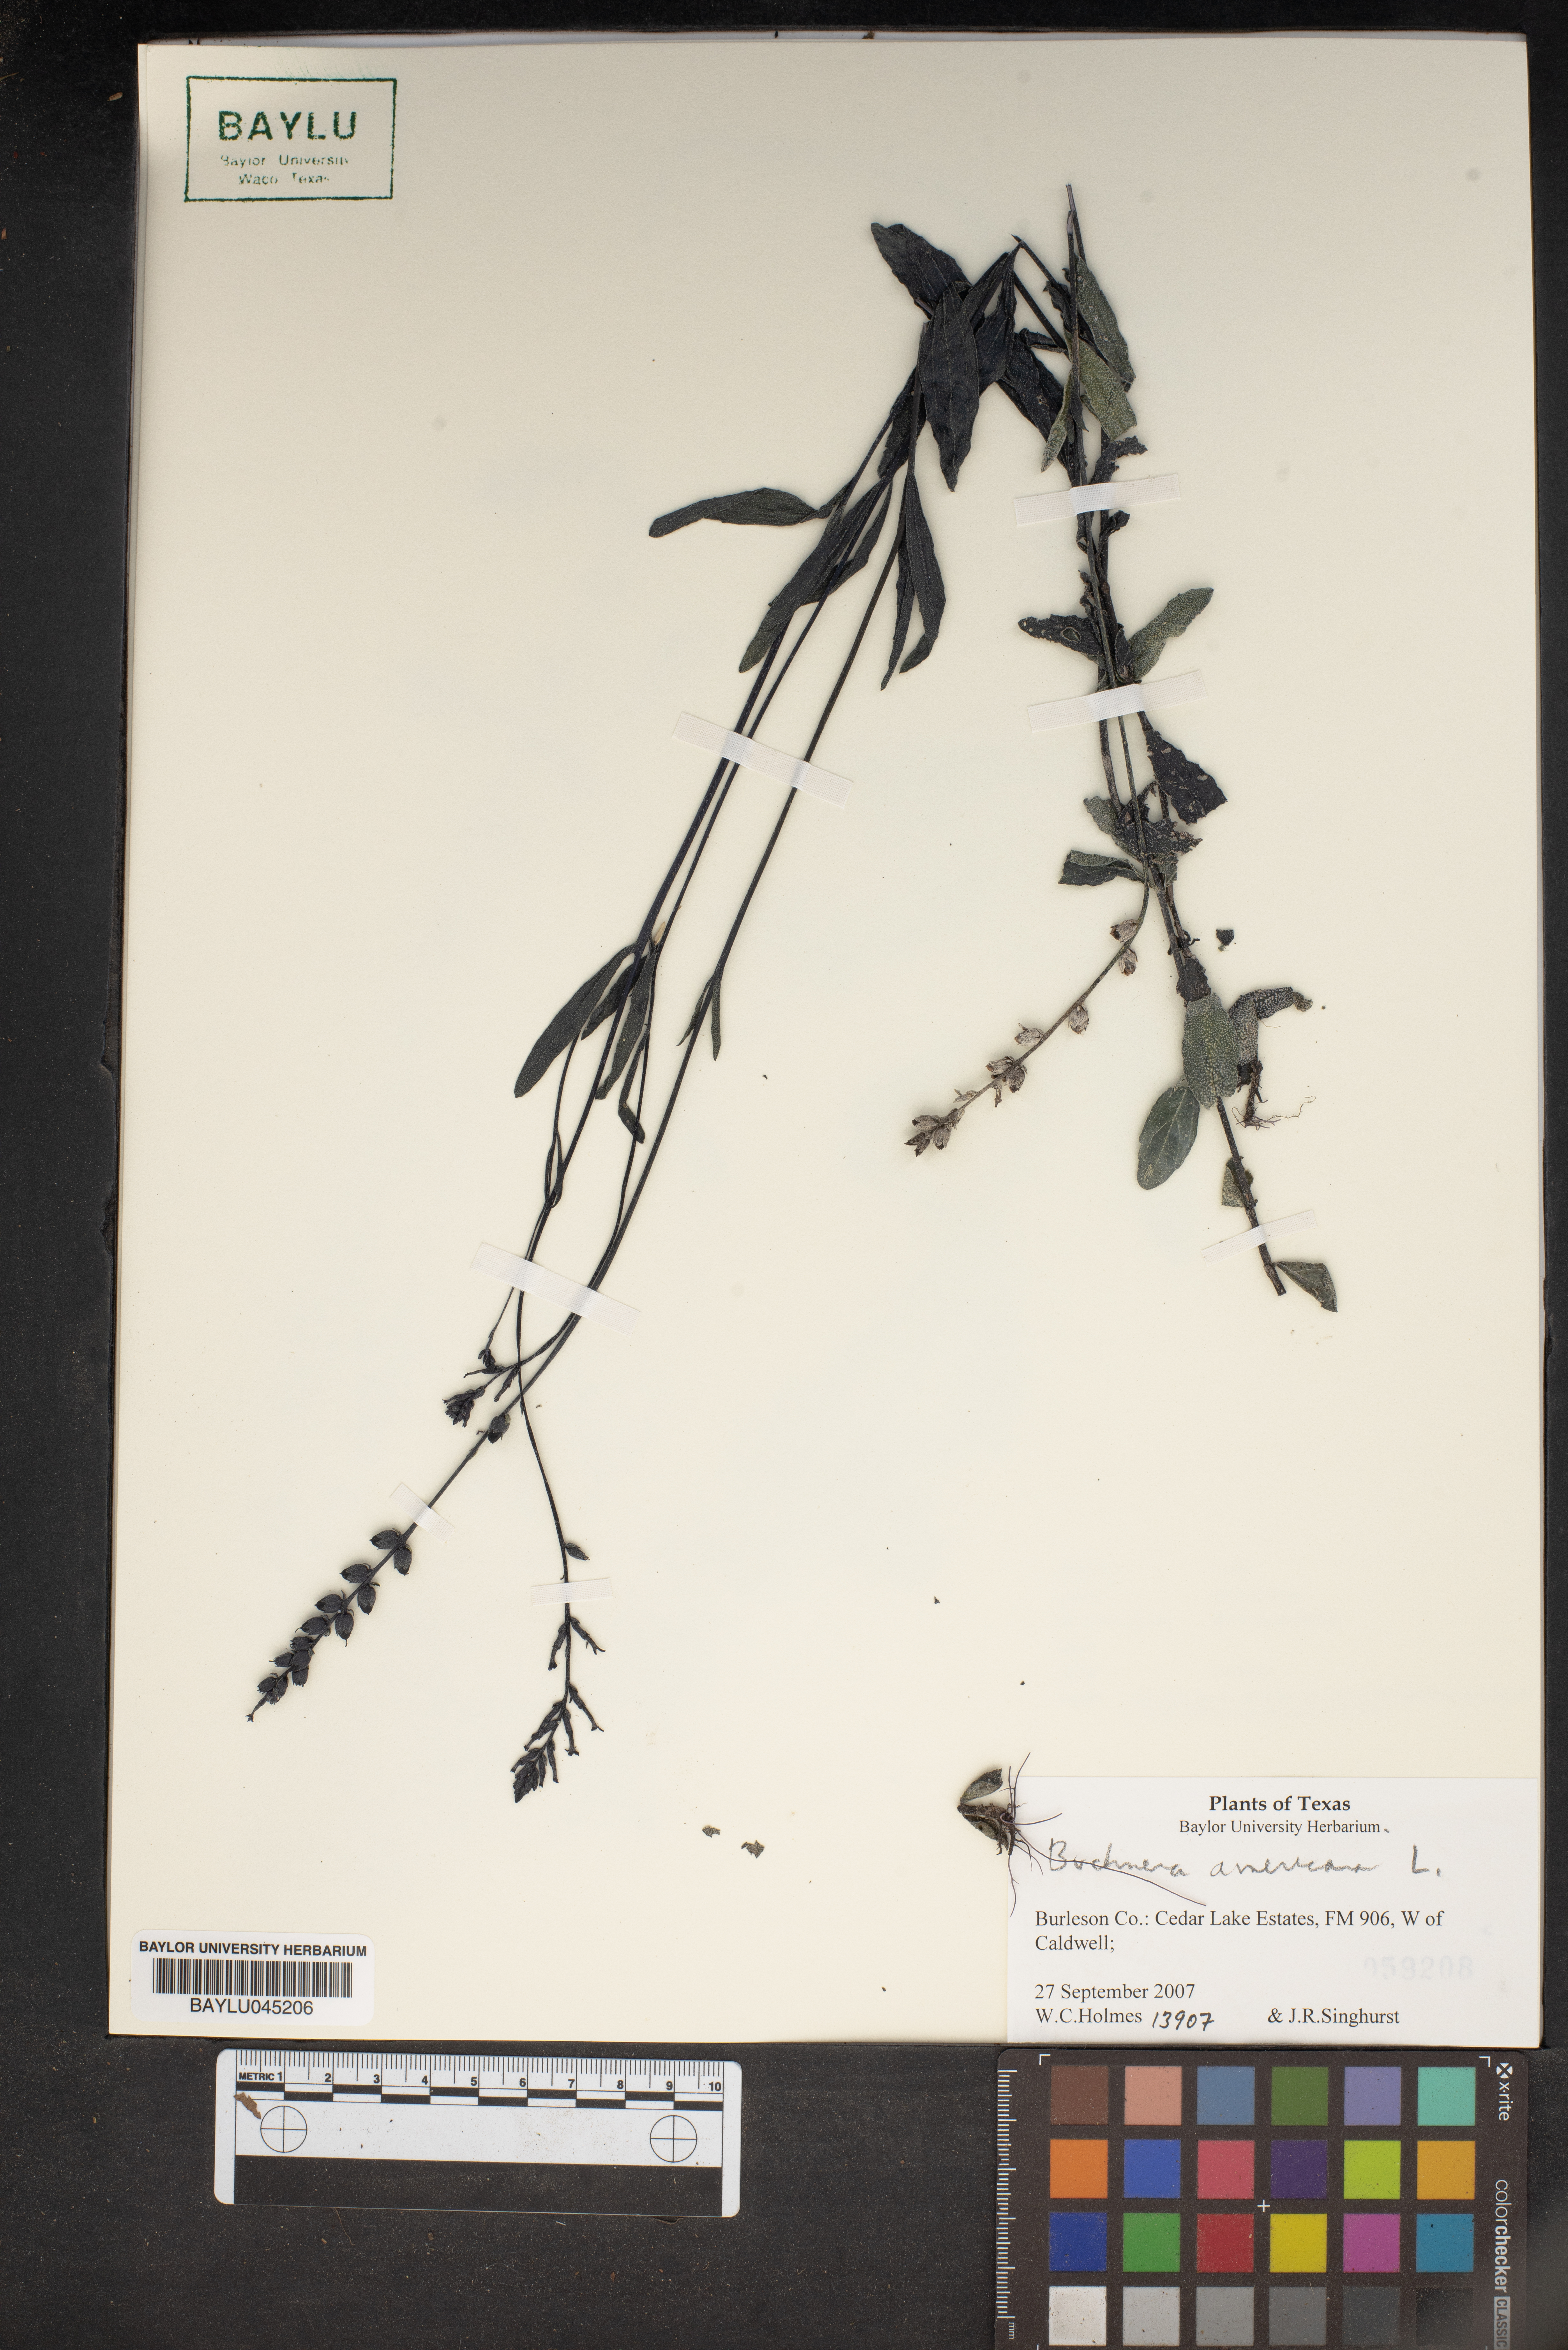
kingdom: Plantae
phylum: Tracheophyta
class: Magnoliopsida
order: Lamiales
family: Orobanchaceae
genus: Buchnera
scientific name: Buchnera americana
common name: American bluehearts
